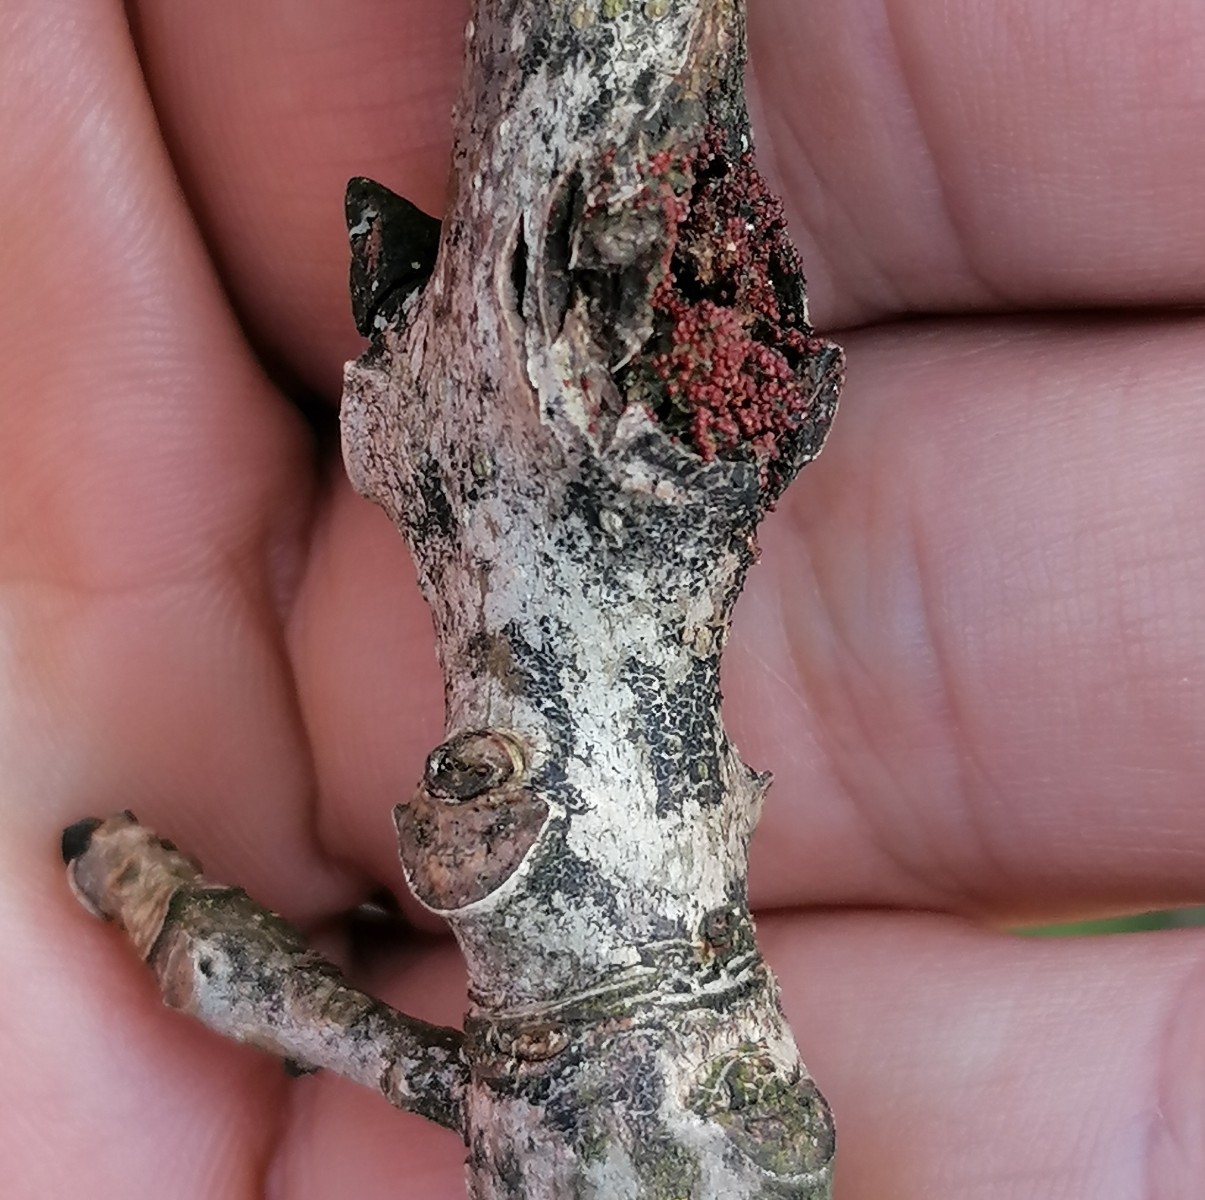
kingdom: Fungi
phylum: Ascomycota
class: Sordariomycetes
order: Hypocreales
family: Nectriaceae
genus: Neonectria
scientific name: Neonectria ditissima
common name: frugttræ-cinnobersvamp
